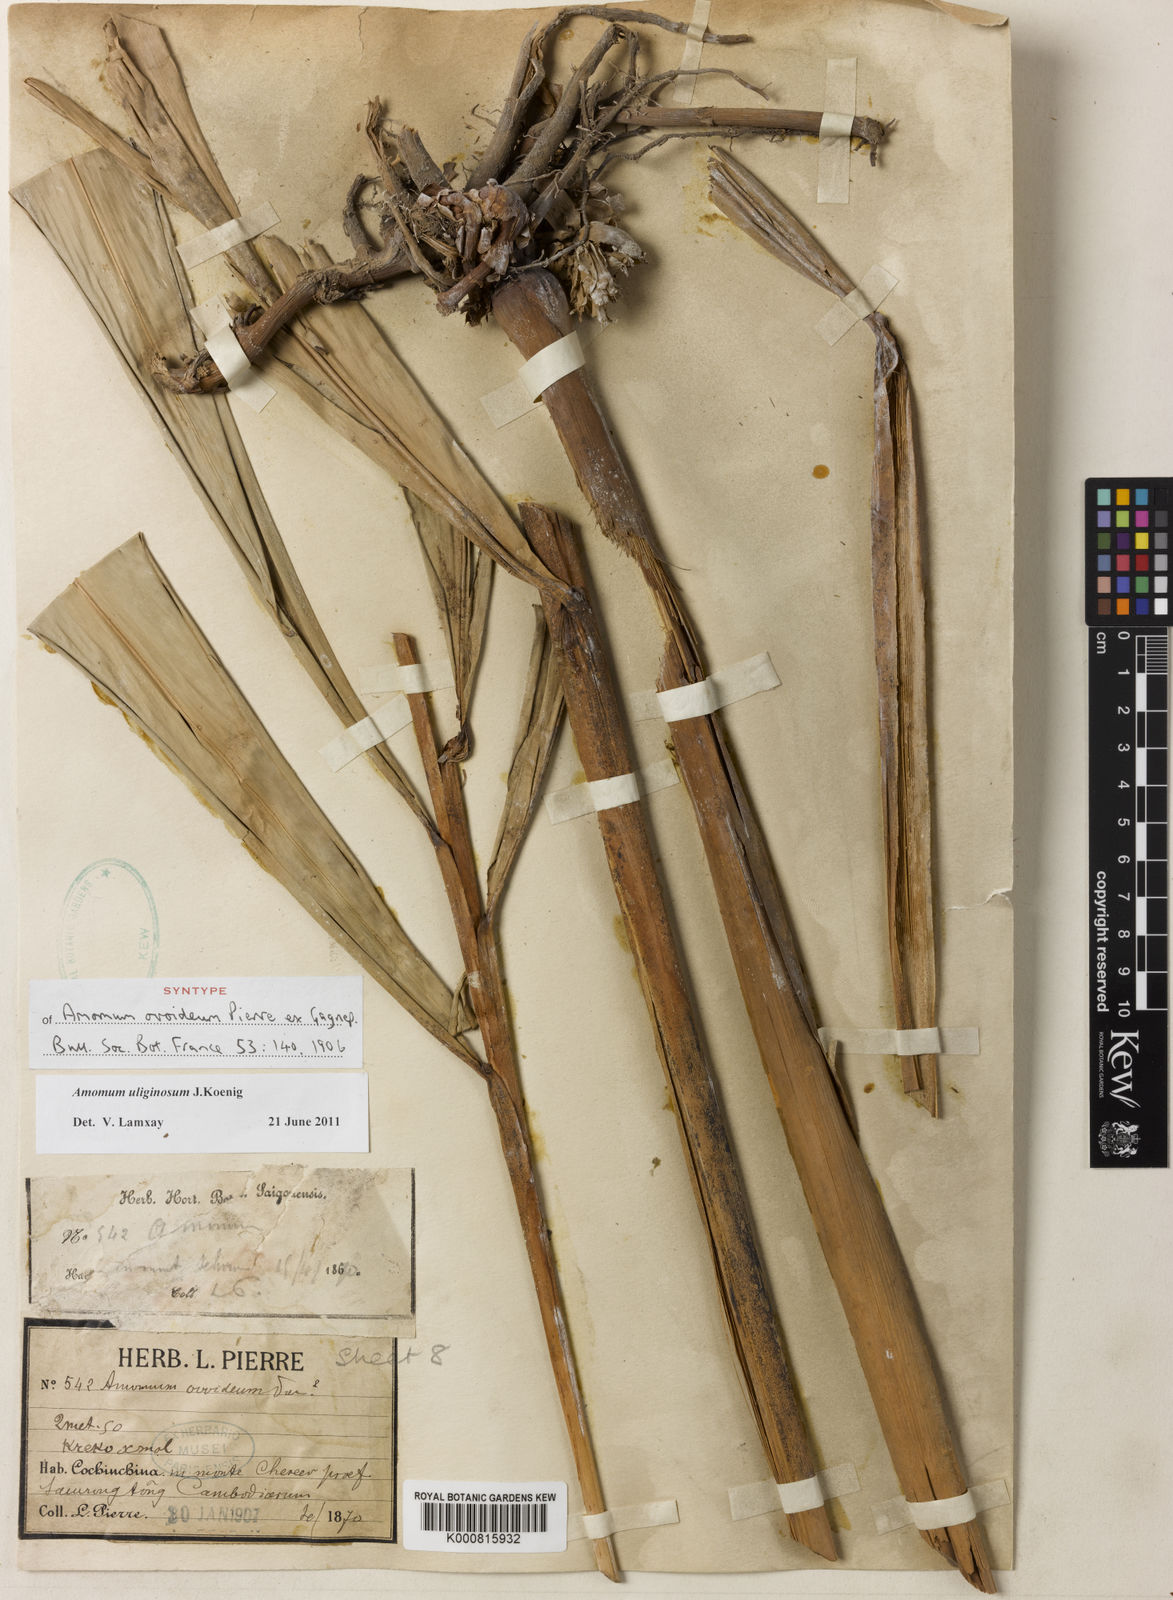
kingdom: Plantae
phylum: Tracheophyta
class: Liliopsida
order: Zingiberales
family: Zingiberaceae
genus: Wurfbainia
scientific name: Wurfbainia uliginosa
